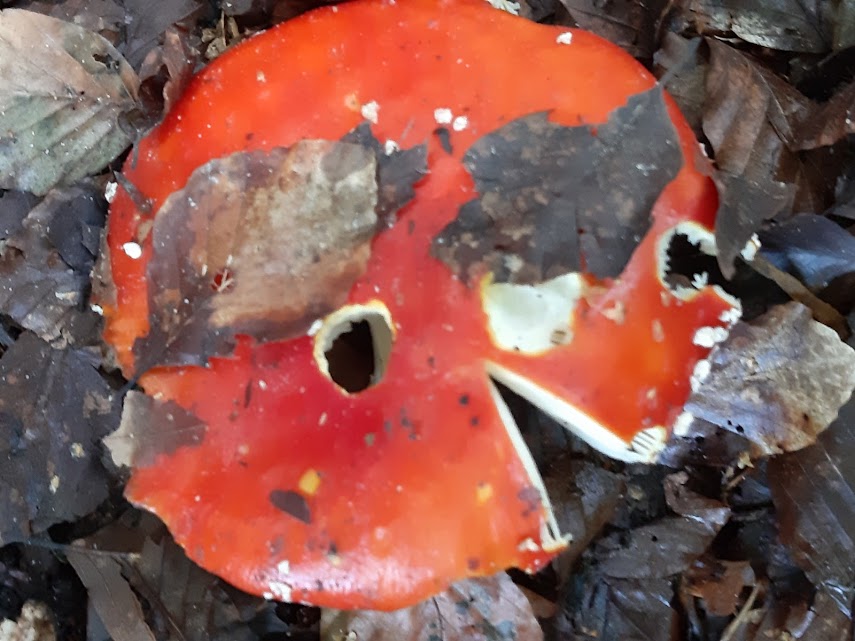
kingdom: Fungi
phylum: Basidiomycota
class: Agaricomycetes
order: Agaricales
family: Amanitaceae
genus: Amanita
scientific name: Amanita muscaria
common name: rød fluesvamp
